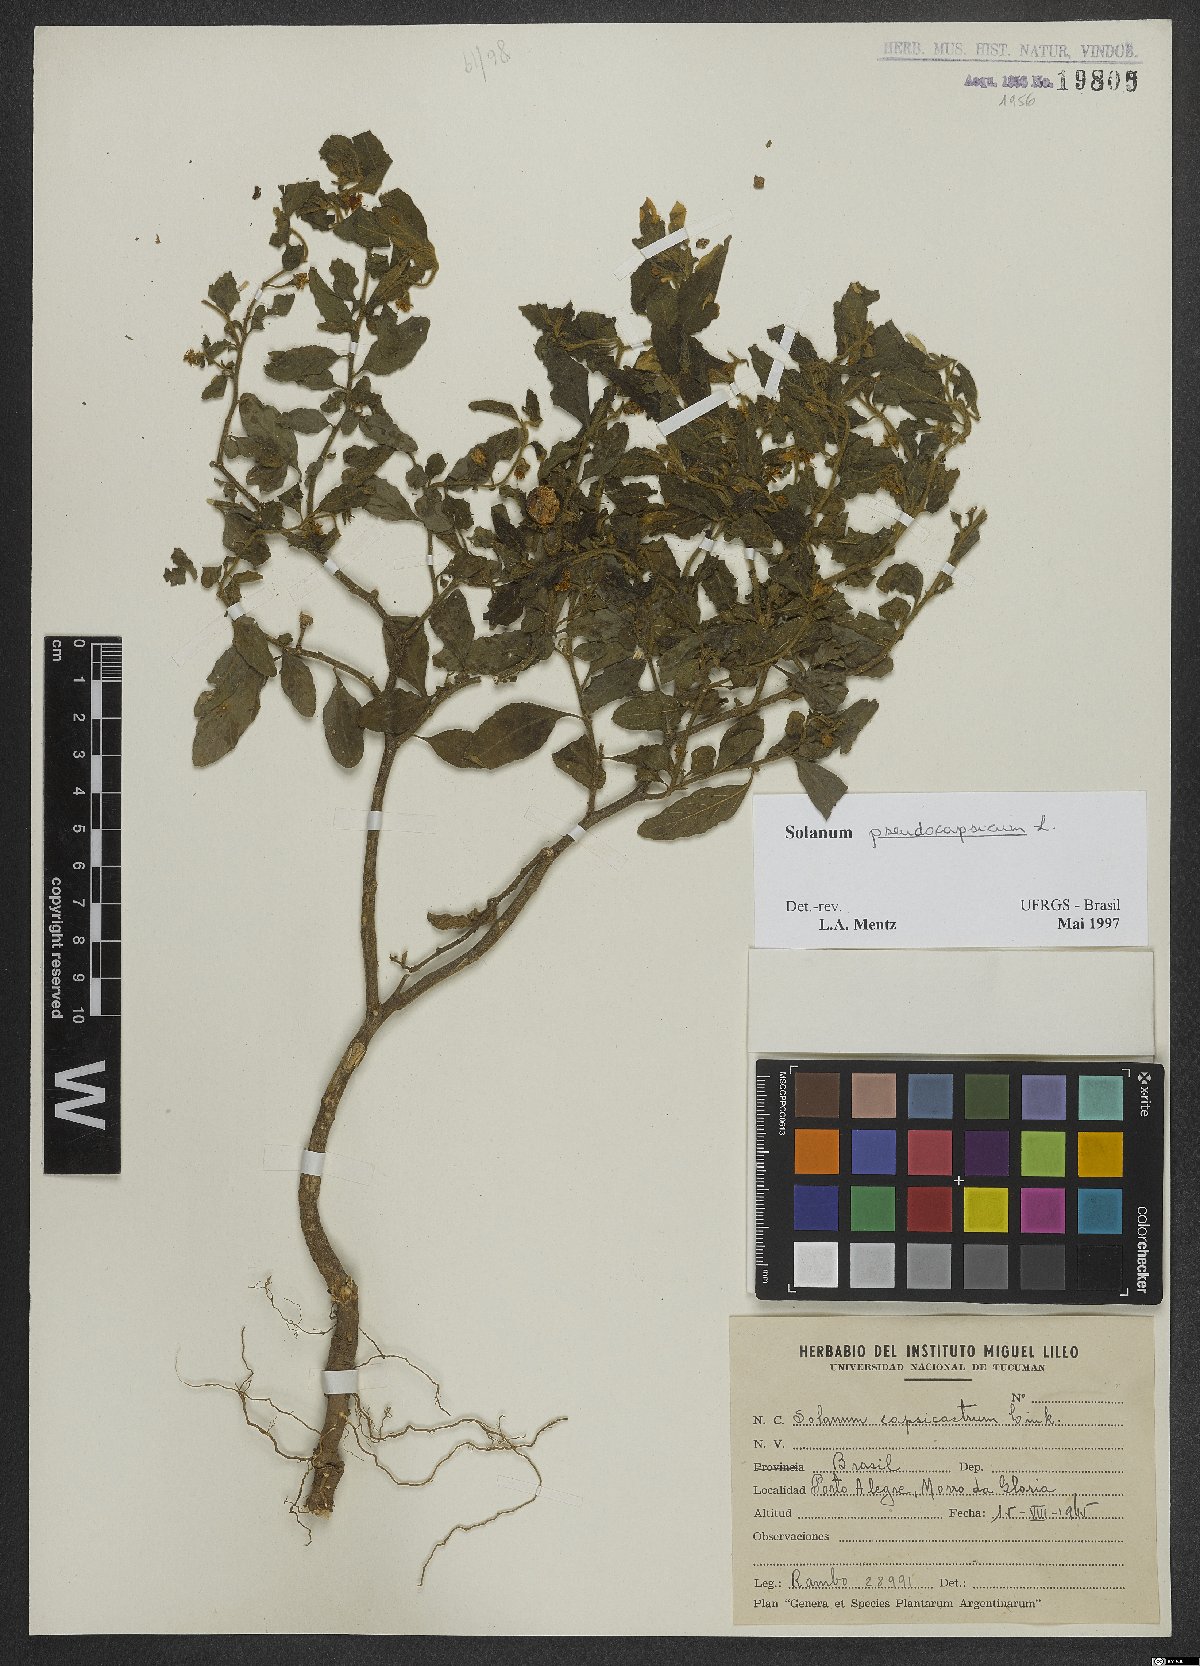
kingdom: Plantae
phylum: Tracheophyta
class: Magnoliopsida
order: Solanales
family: Solanaceae
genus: Solanum
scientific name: Solanum pseudocapsicum
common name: Jerusalem cherry
